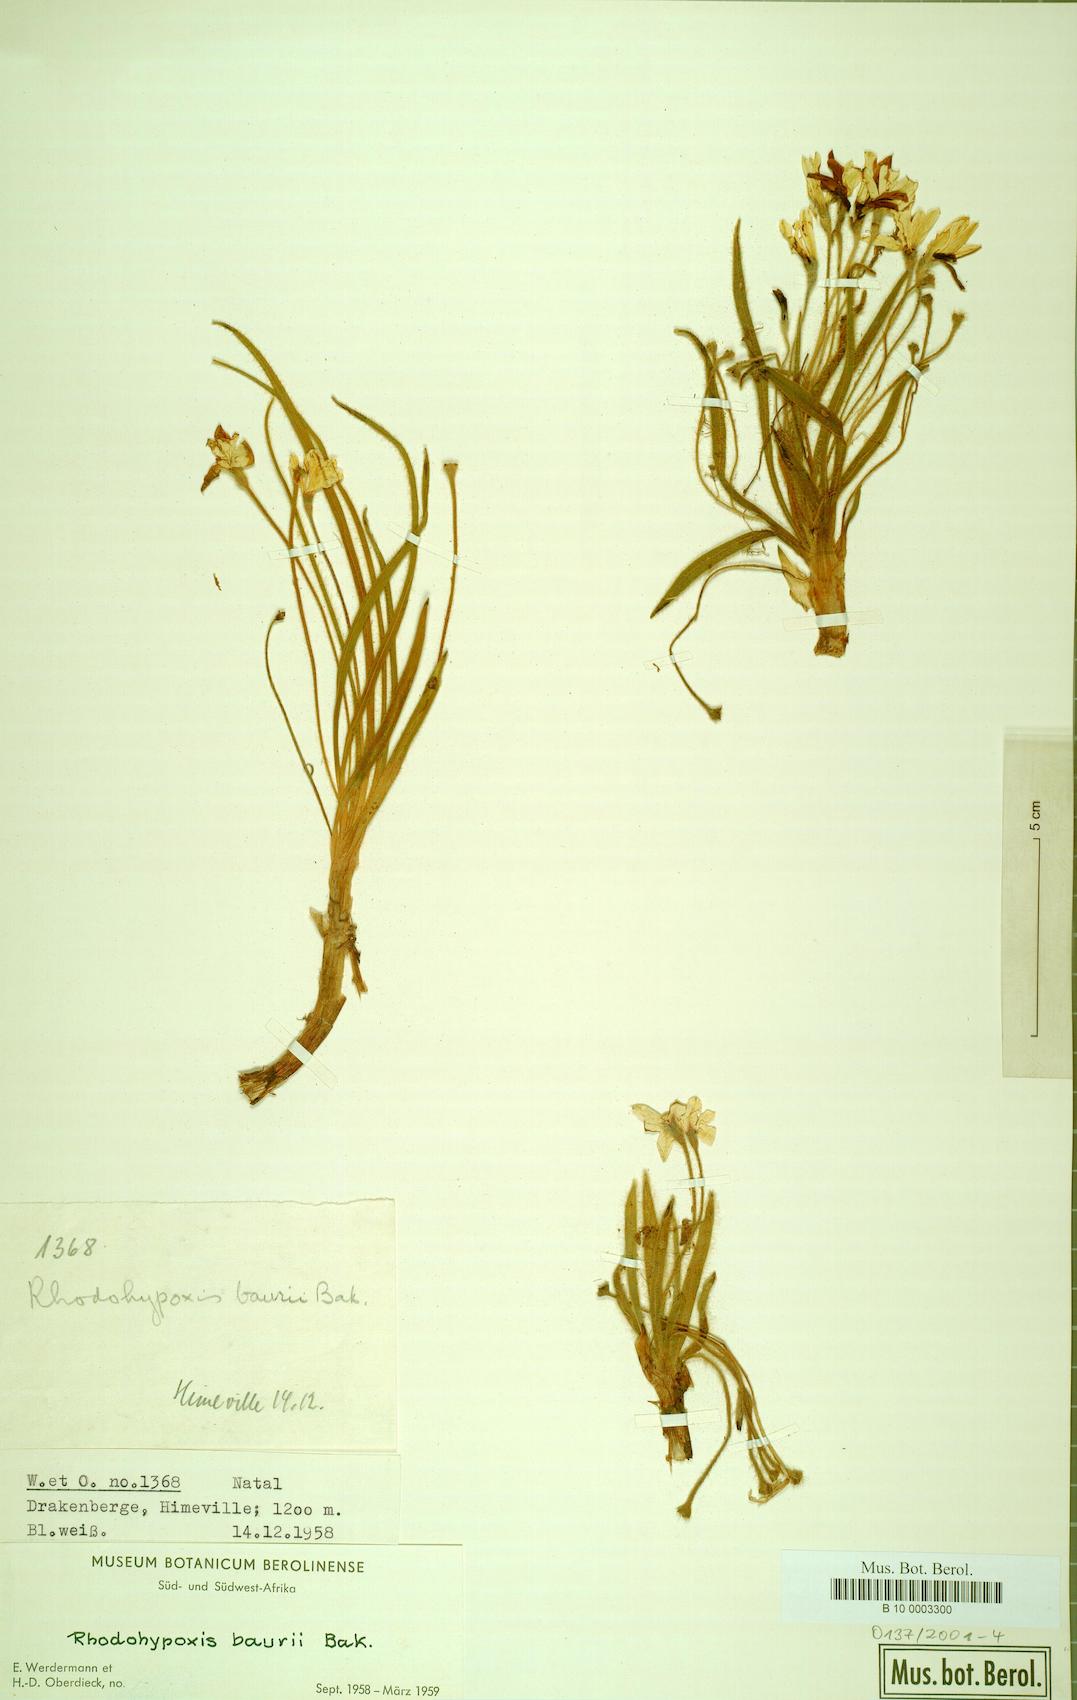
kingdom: Plantae
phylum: Tracheophyta
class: Liliopsida
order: Asparagales
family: Hypoxidaceae
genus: Hypoxis
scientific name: Hypoxis baurii
